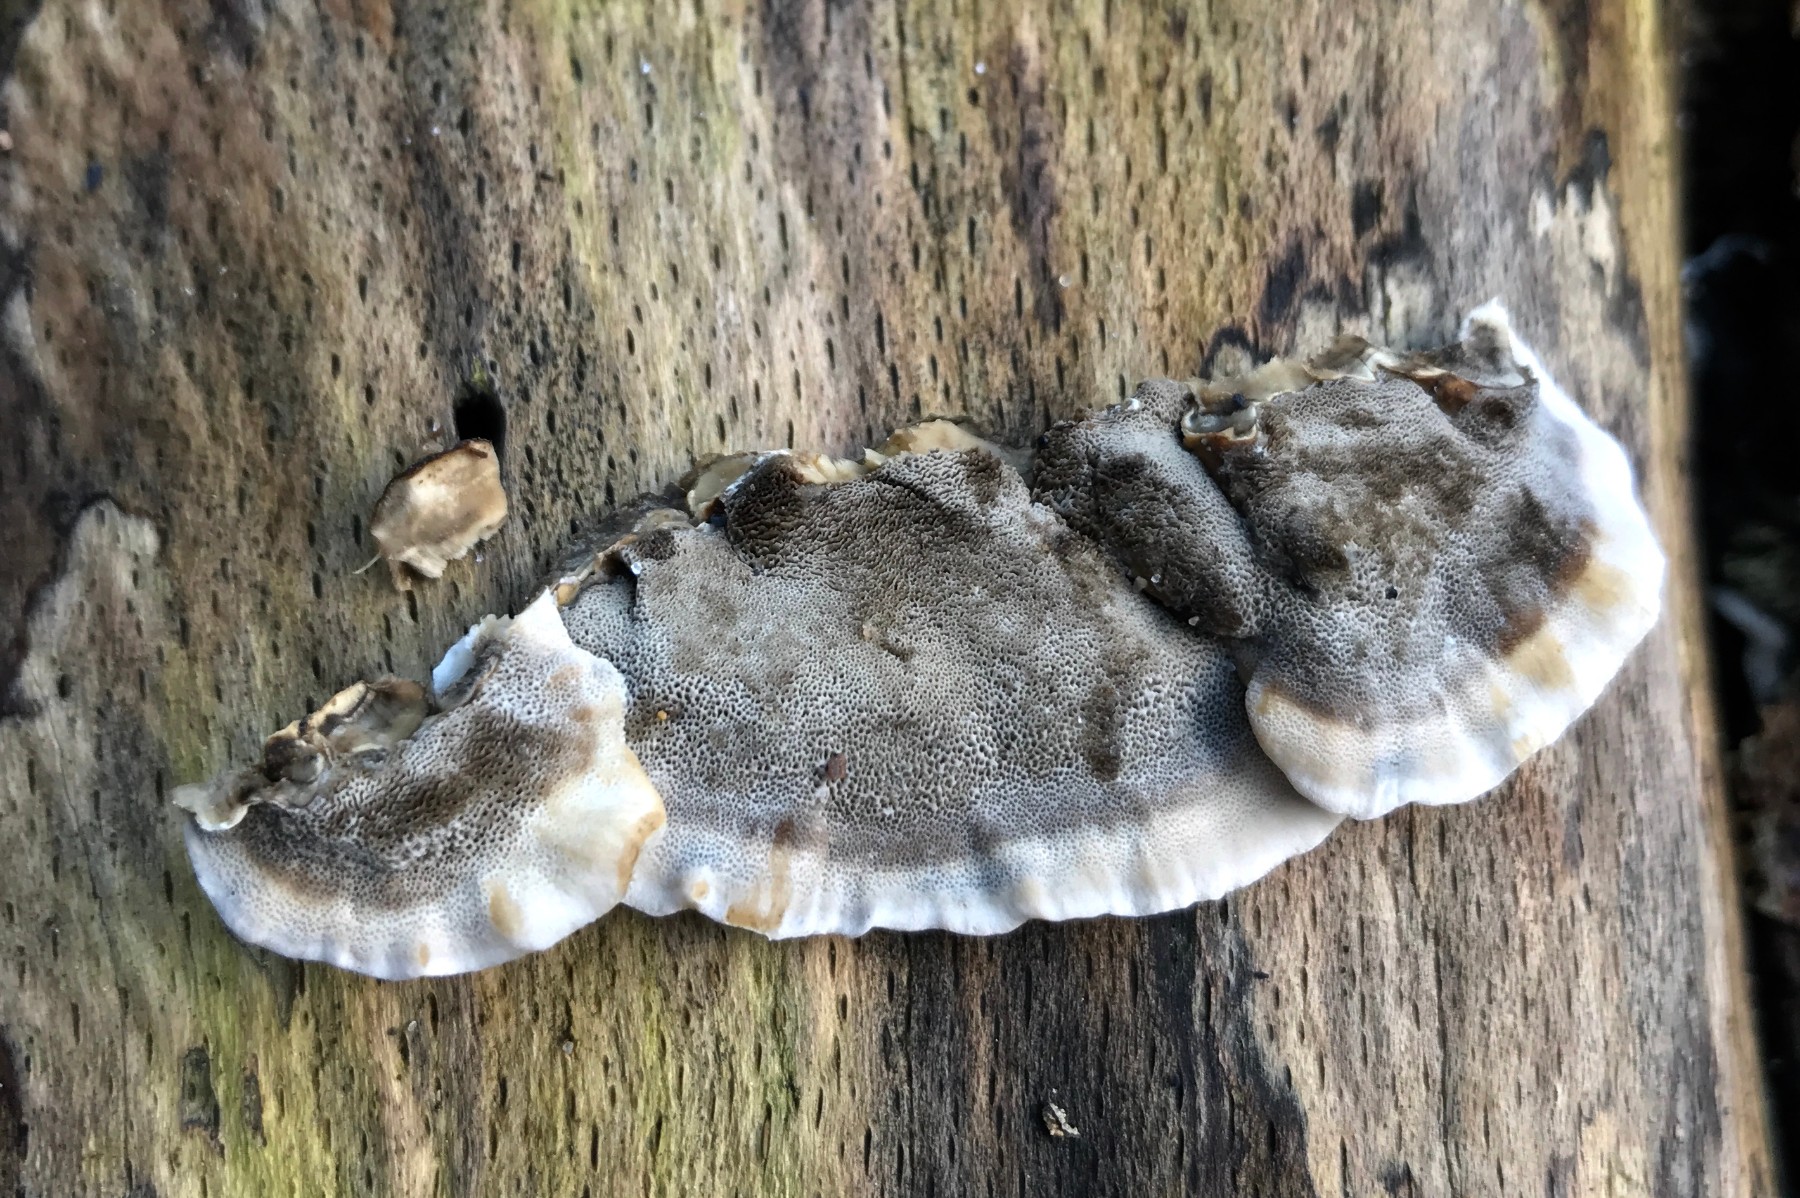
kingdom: Fungi
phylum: Basidiomycota
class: Agaricomycetes
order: Polyporales
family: Phanerochaetaceae
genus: Bjerkandera
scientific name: Bjerkandera adusta
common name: sveden sodporesvamp
